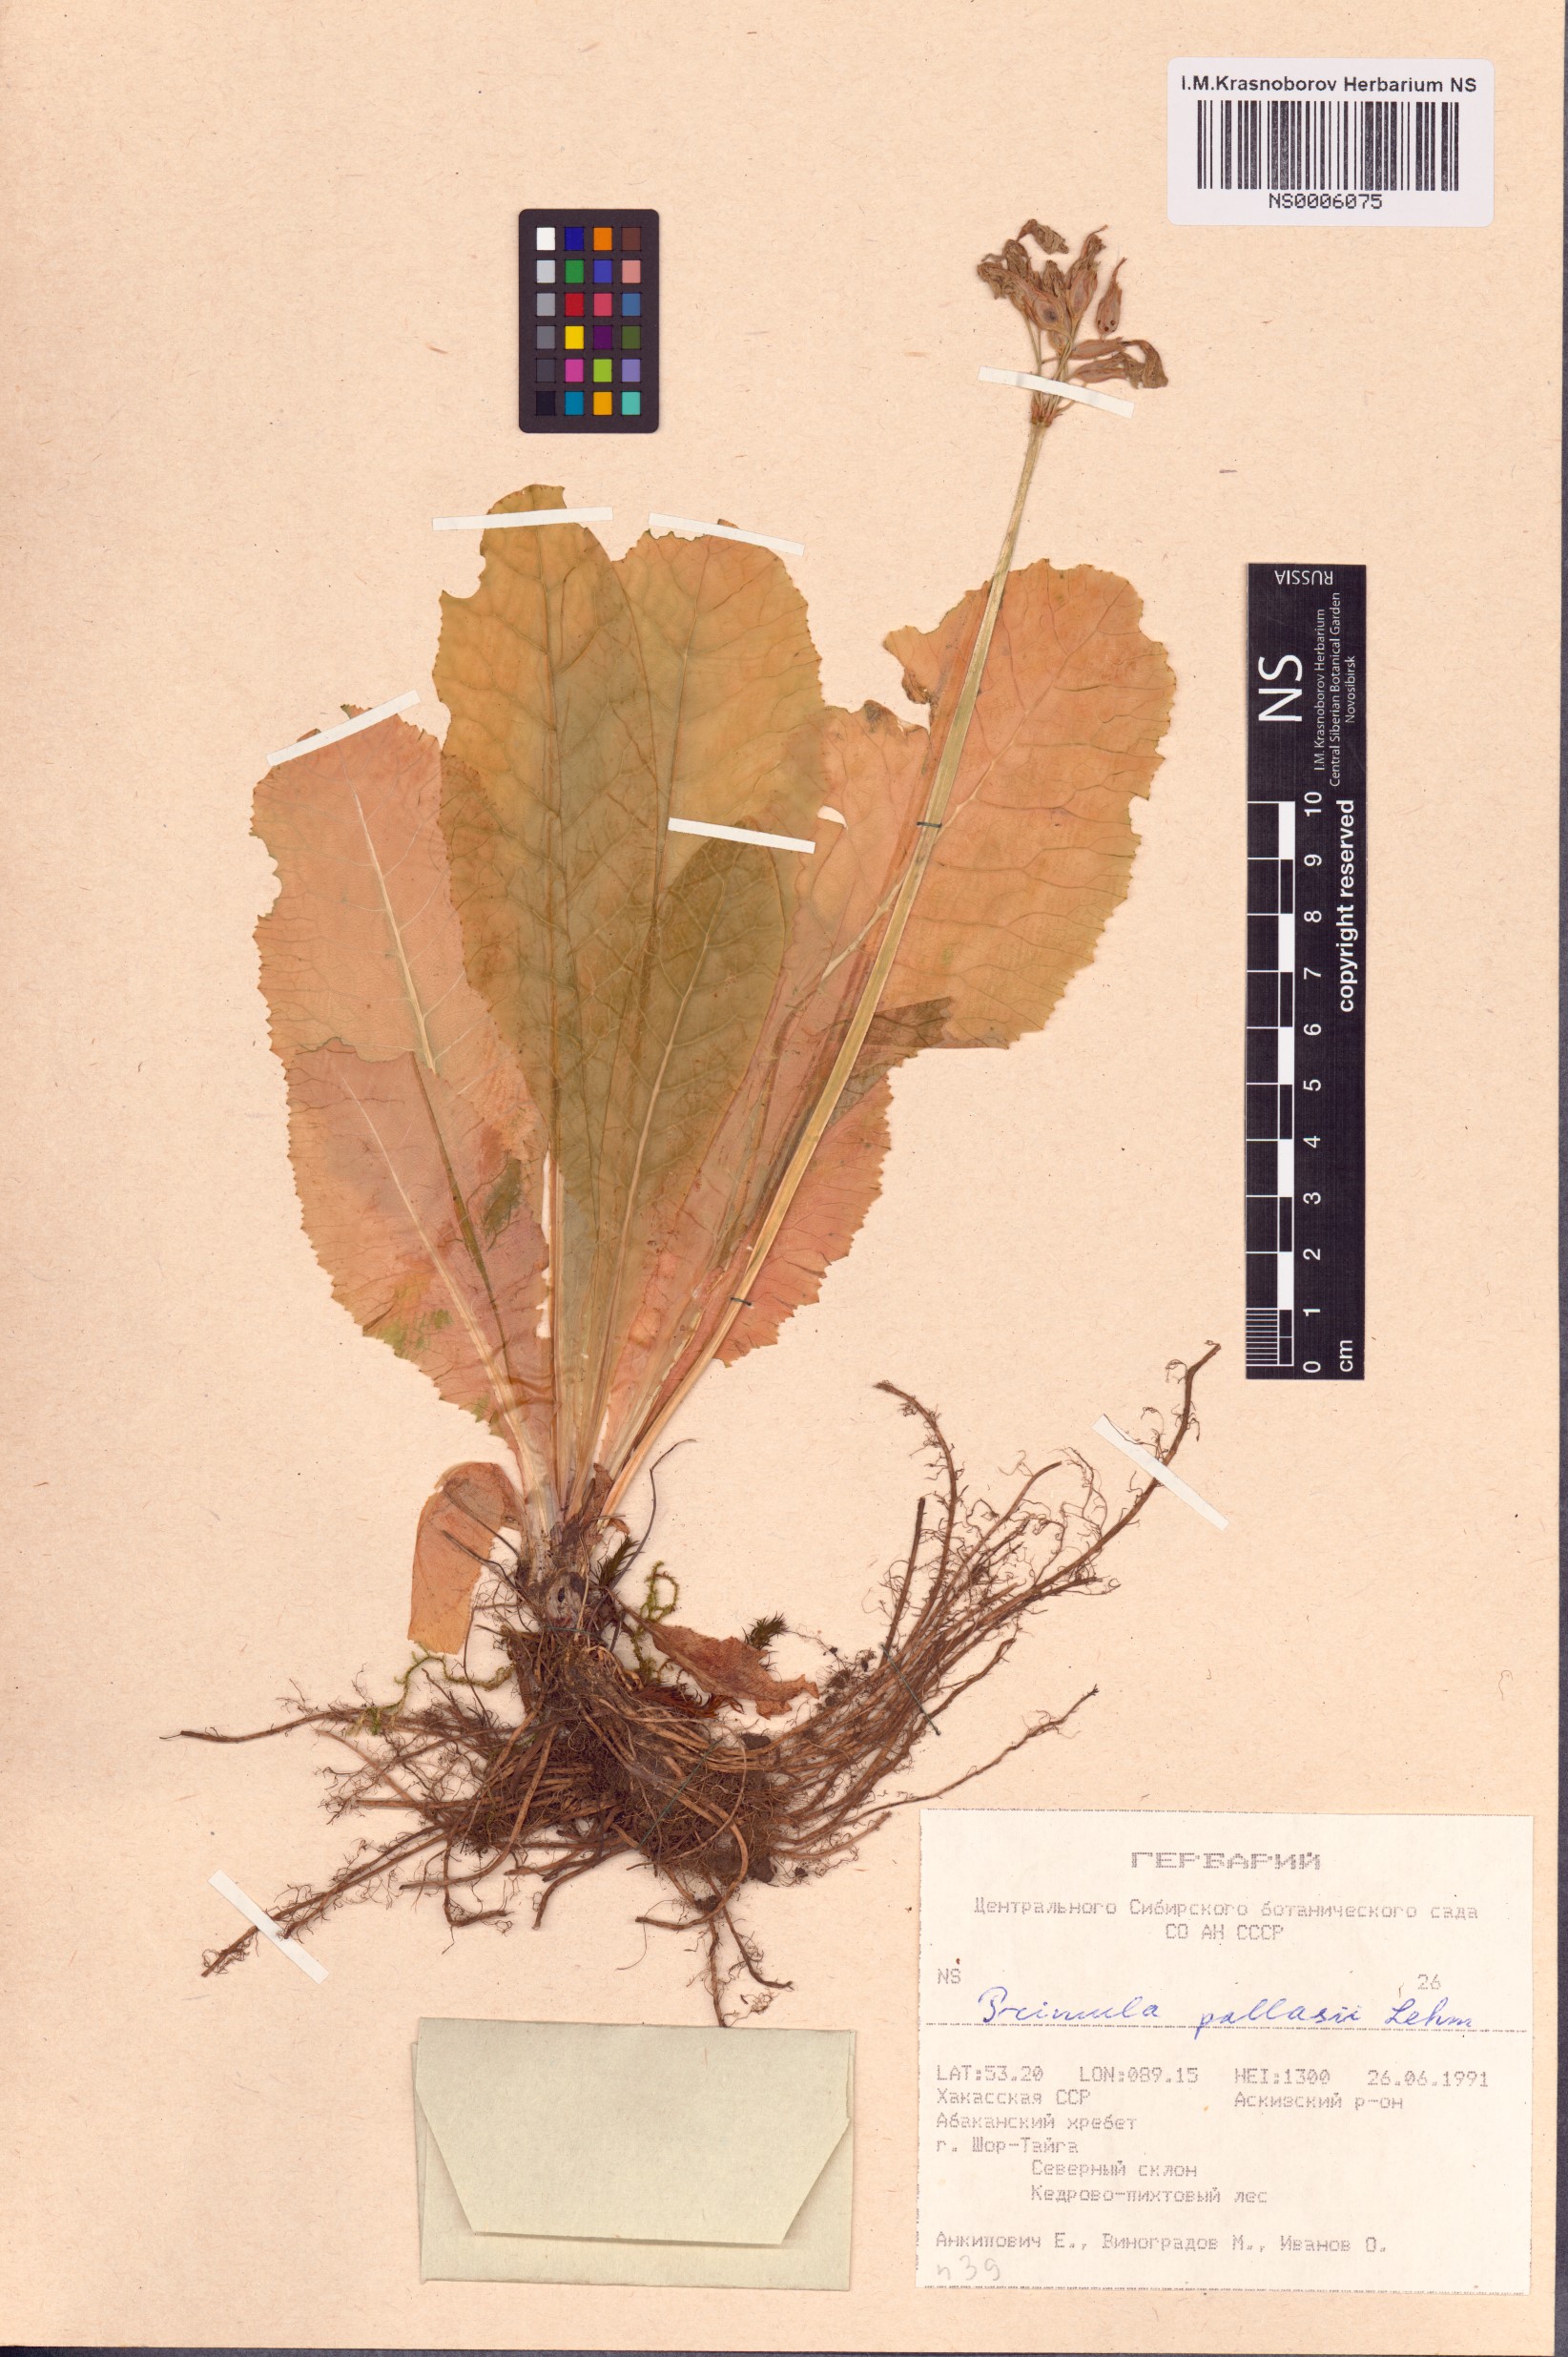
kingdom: Plantae
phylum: Tracheophyta
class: Magnoliopsida
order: Ericales
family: Primulaceae
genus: Primula
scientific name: Primula elatior
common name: Oxlip
